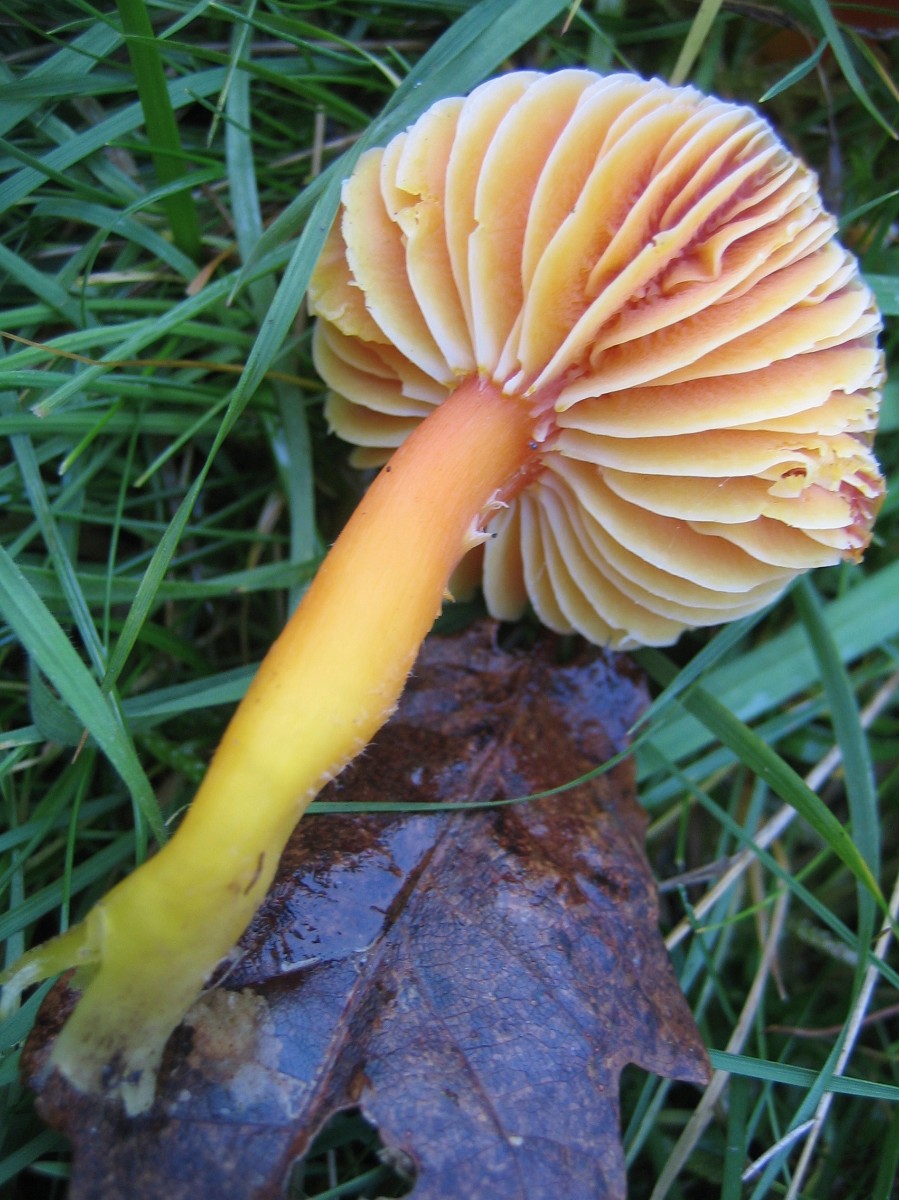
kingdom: Fungi
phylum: Basidiomycota
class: Agaricomycetes
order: Agaricales
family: Hygrophoraceae
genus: Hygrocybe
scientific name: Hygrocybe coccinea
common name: cinnober-vokshat
